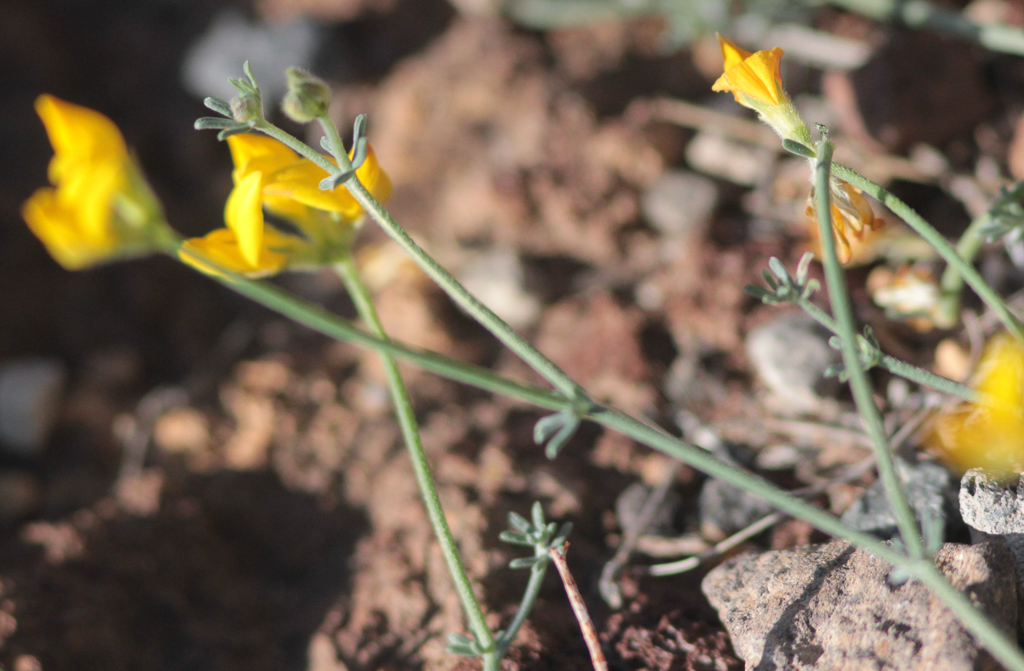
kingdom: Plantae
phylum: Tracheophyta
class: Magnoliopsida
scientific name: Magnoliopsida
